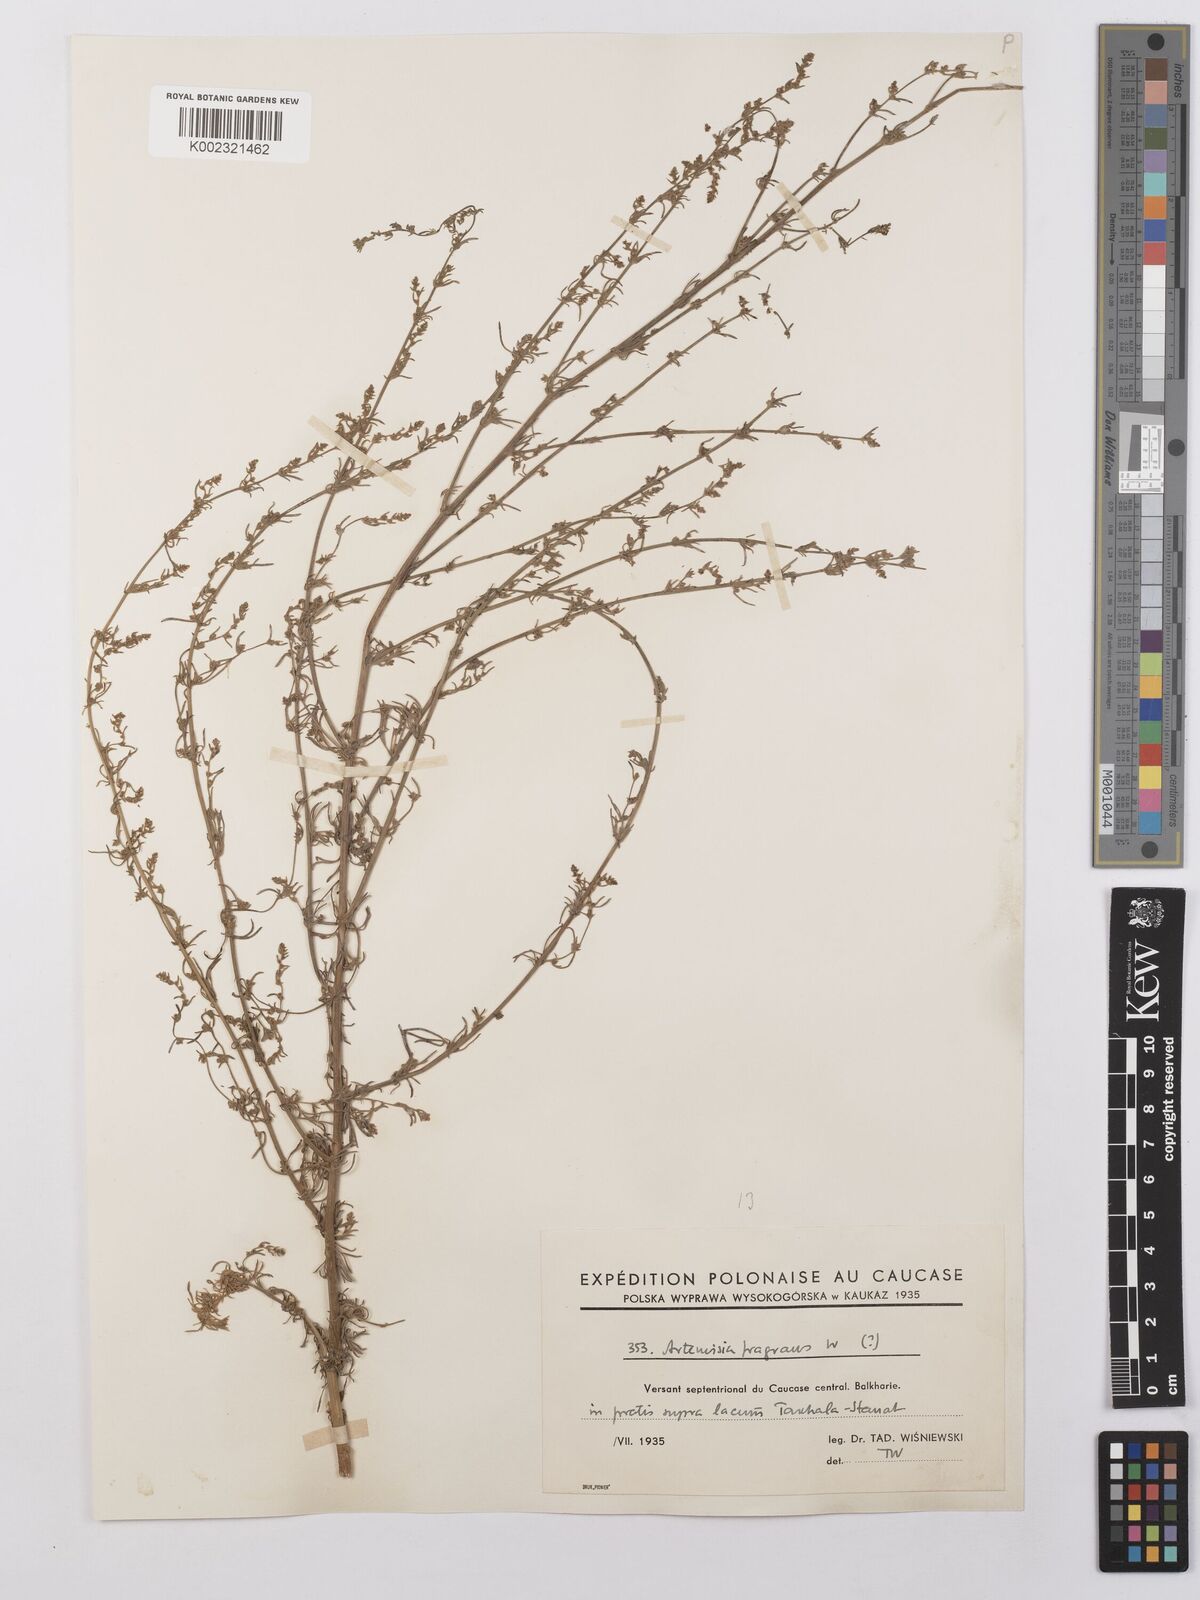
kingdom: Plantae
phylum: Tracheophyta
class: Magnoliopsida
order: Asterales
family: Asteraceae
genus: Artemisia
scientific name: Artemisia fragrans
